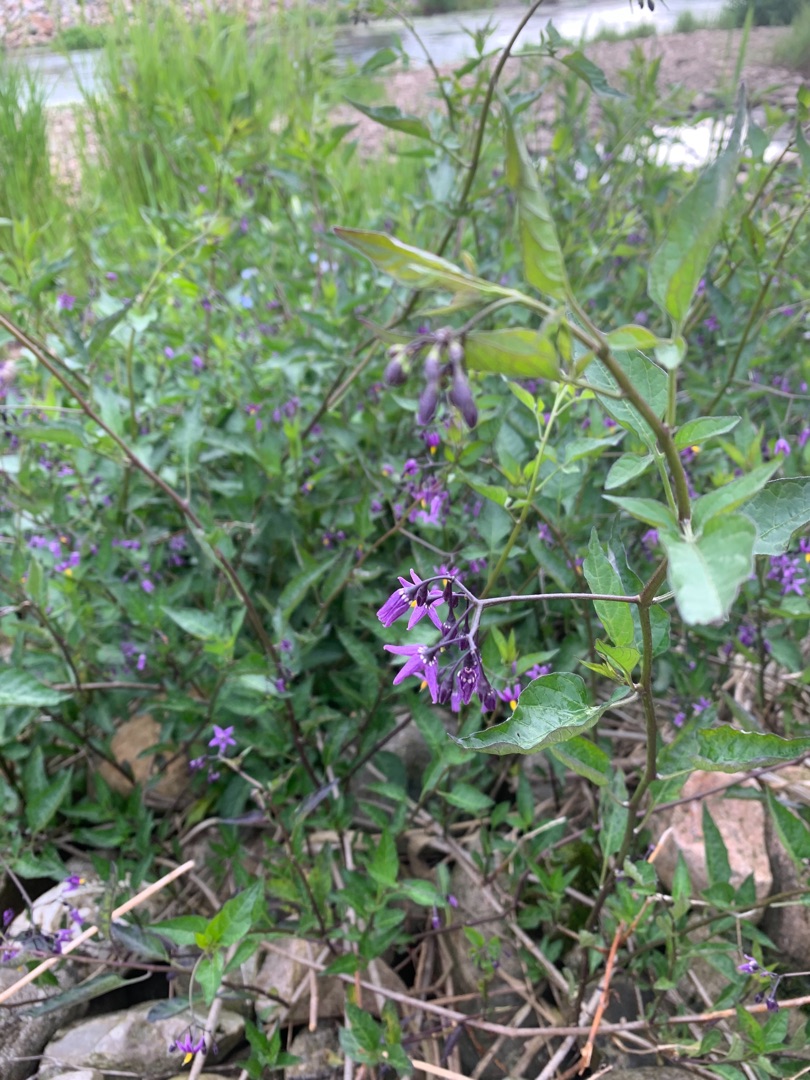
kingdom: Plantae
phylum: Tracheophyta
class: Magnoliopsida
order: Solanales
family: Solanaceae
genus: Solanum
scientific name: Solanum dulcamara
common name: Bittersød natskygge
